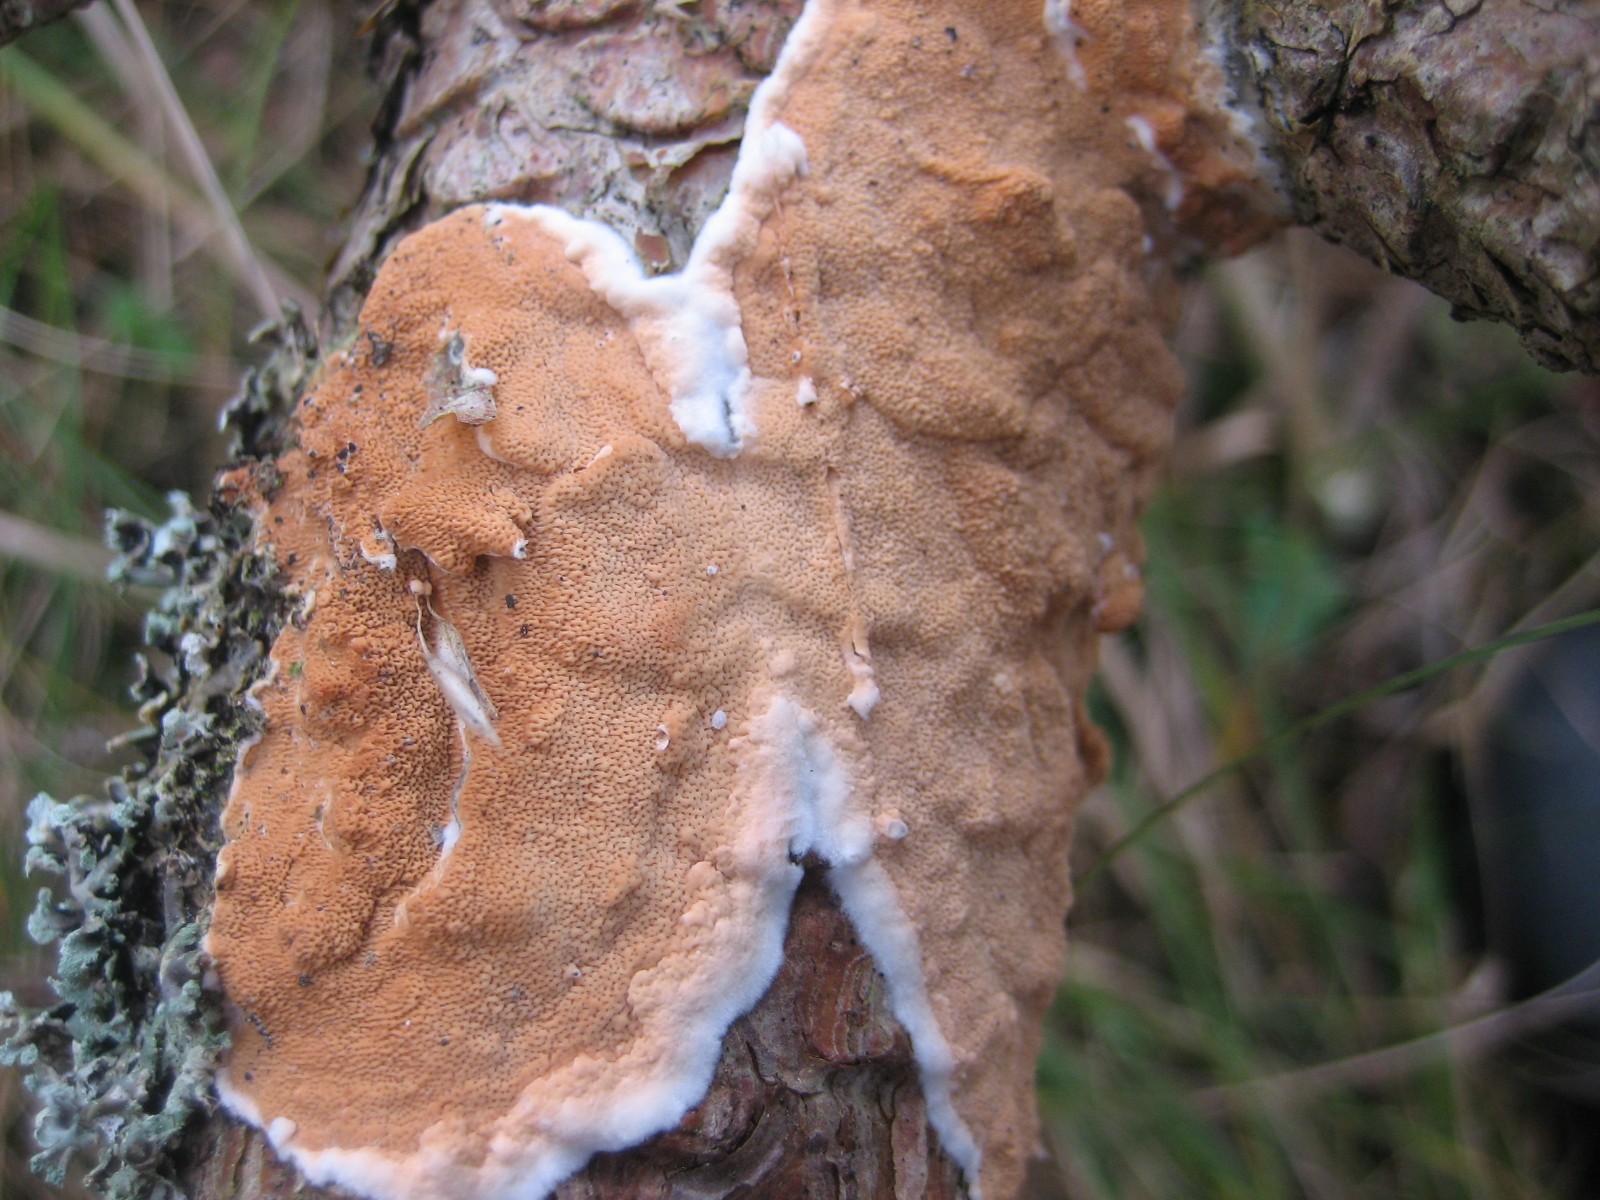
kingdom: Fungi
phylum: Basidiomycota
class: Agaricomycetes
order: Polyporales
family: Irpicaceae
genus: Meruliopsis
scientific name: Meruliopsis taxicola
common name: purpurbrun foldporesvamp
